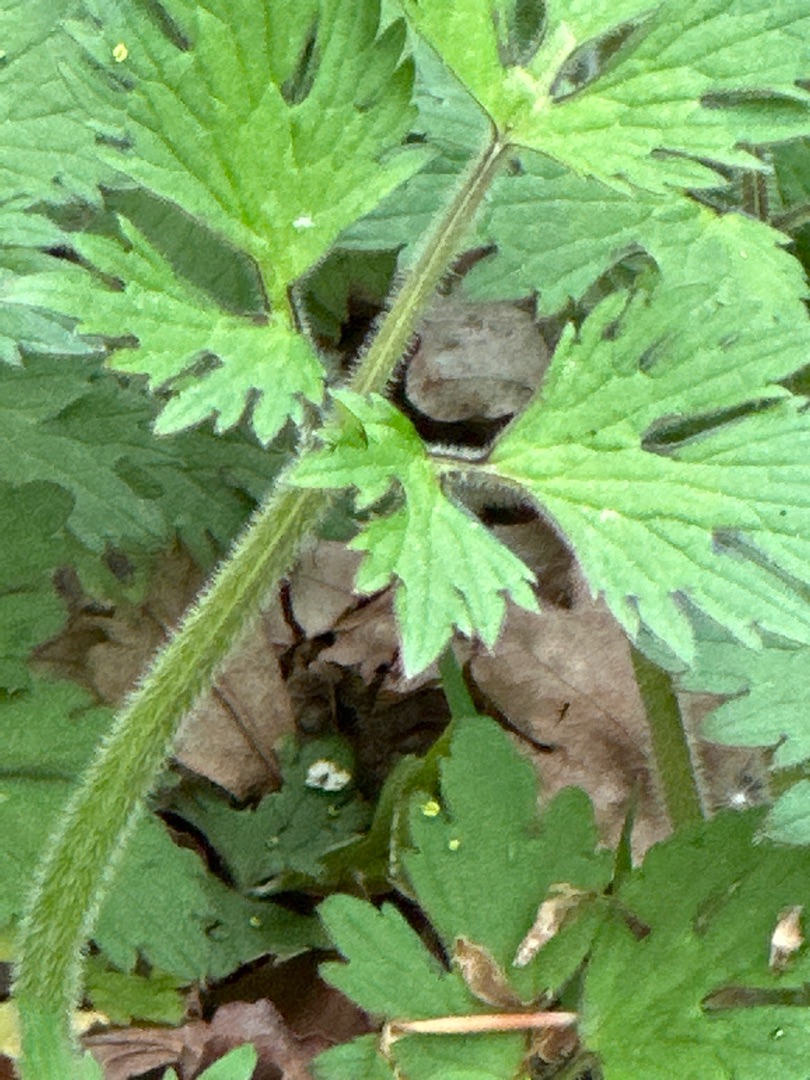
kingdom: Plantae
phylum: Tracheophyta
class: Magnoliopsida
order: Ranunculales
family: Ranunculaceae
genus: Ranunculus
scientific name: Ranunculus repens
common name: Lav ranunkel
